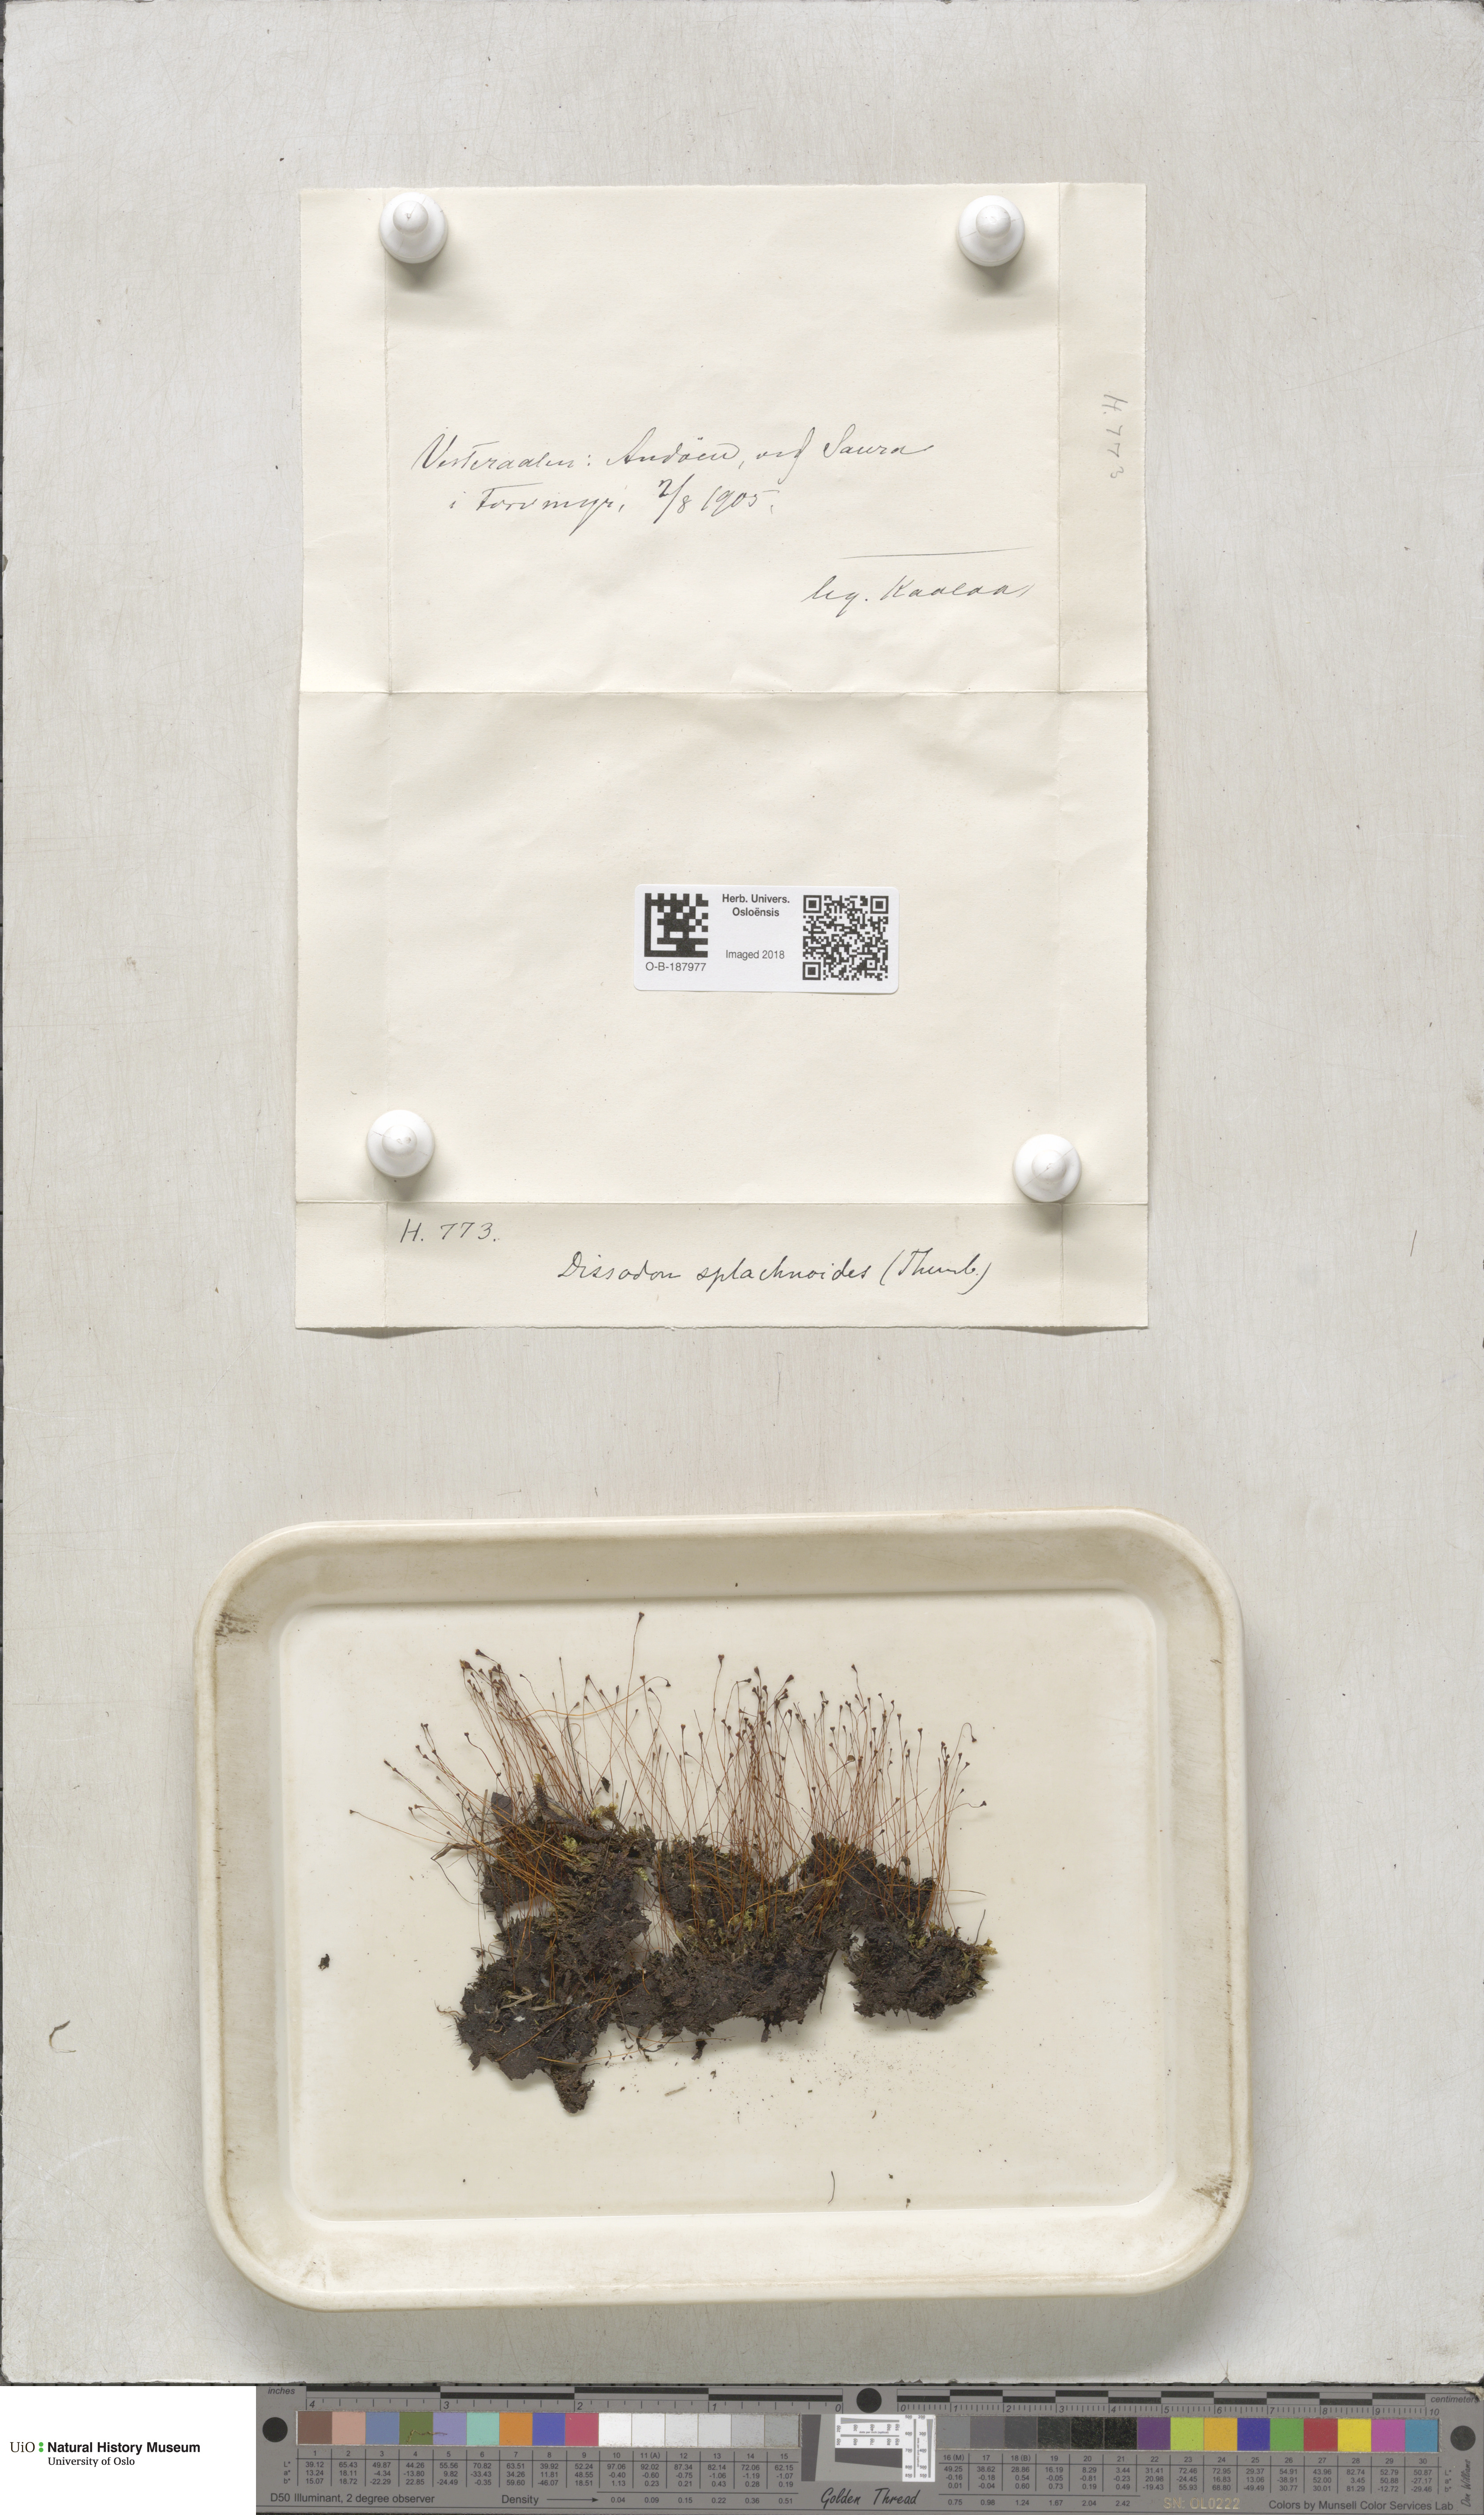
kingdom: Plantae
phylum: Bryophyta
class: Bryopsida
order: Splachnales
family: Splachnaceae
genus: Tayloria
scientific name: Tayloria lingulata
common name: Tongue-leaved trumpet moss
